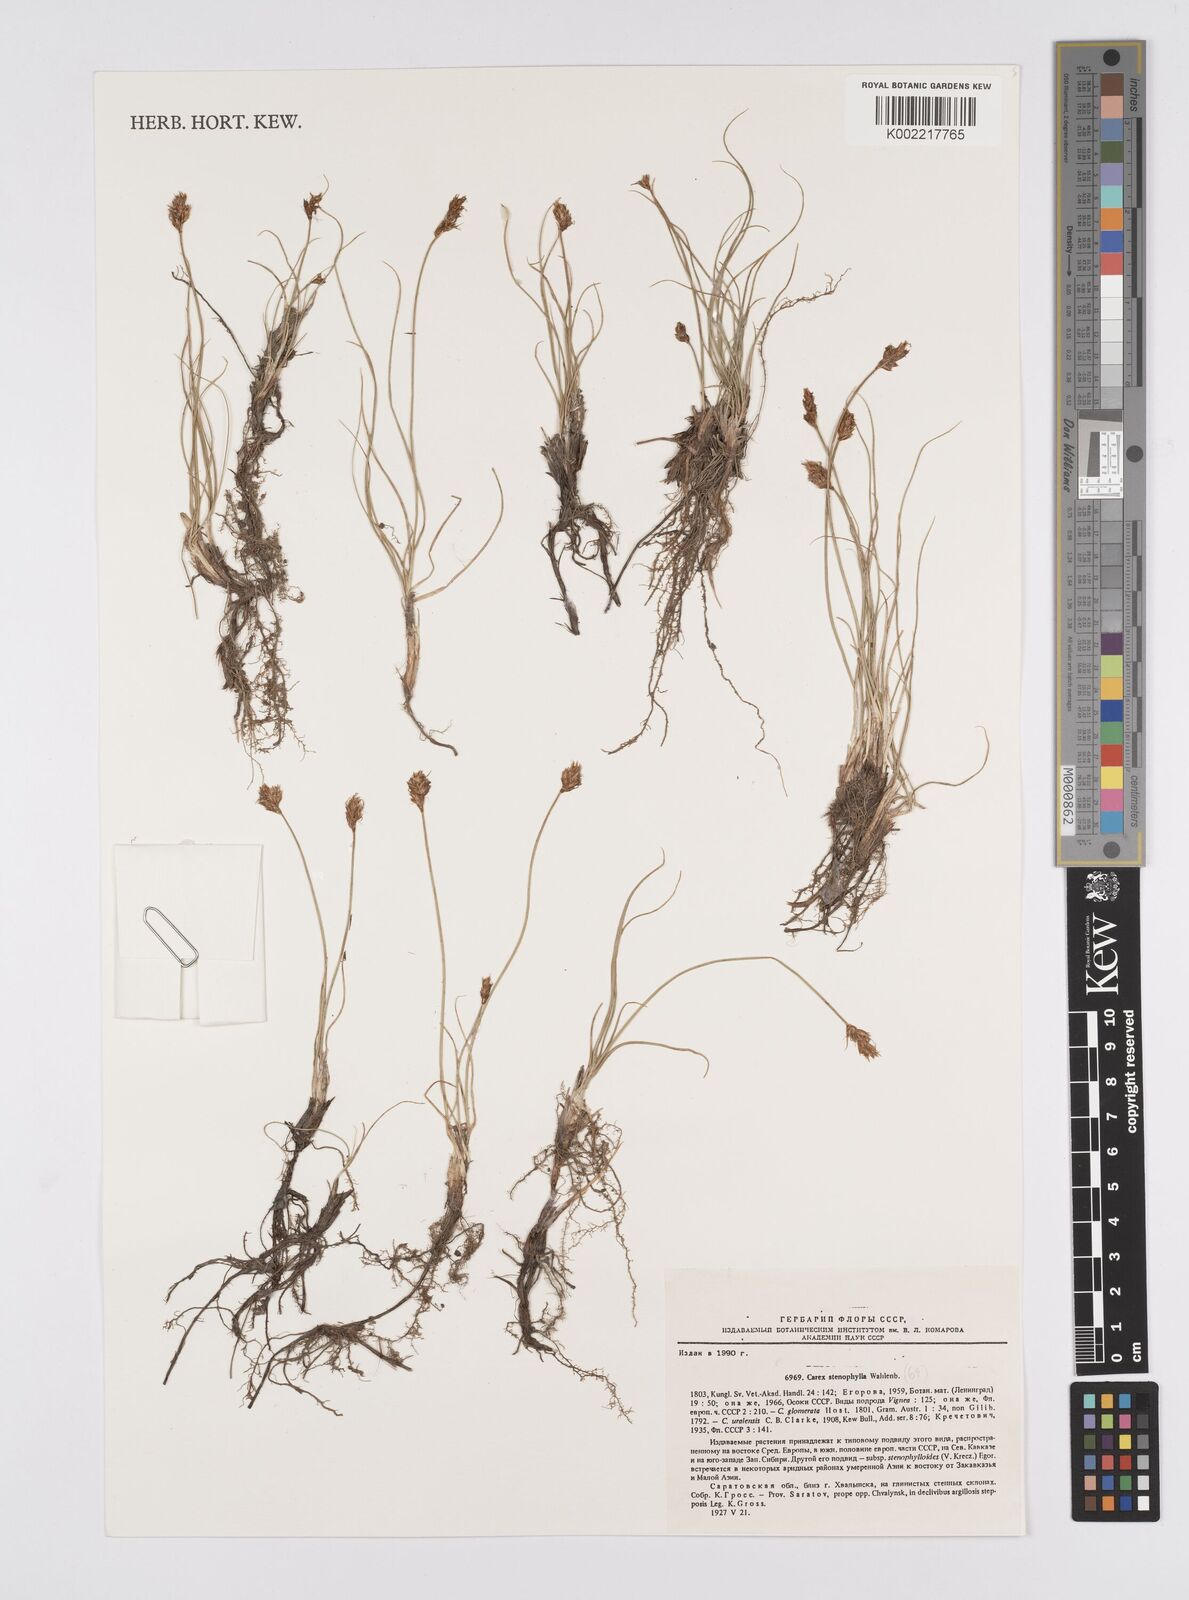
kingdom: Plantae
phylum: Tracheophyta
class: Liliopsida
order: Poales
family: Cyperaceae
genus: Carex
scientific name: Carex stenophylla
